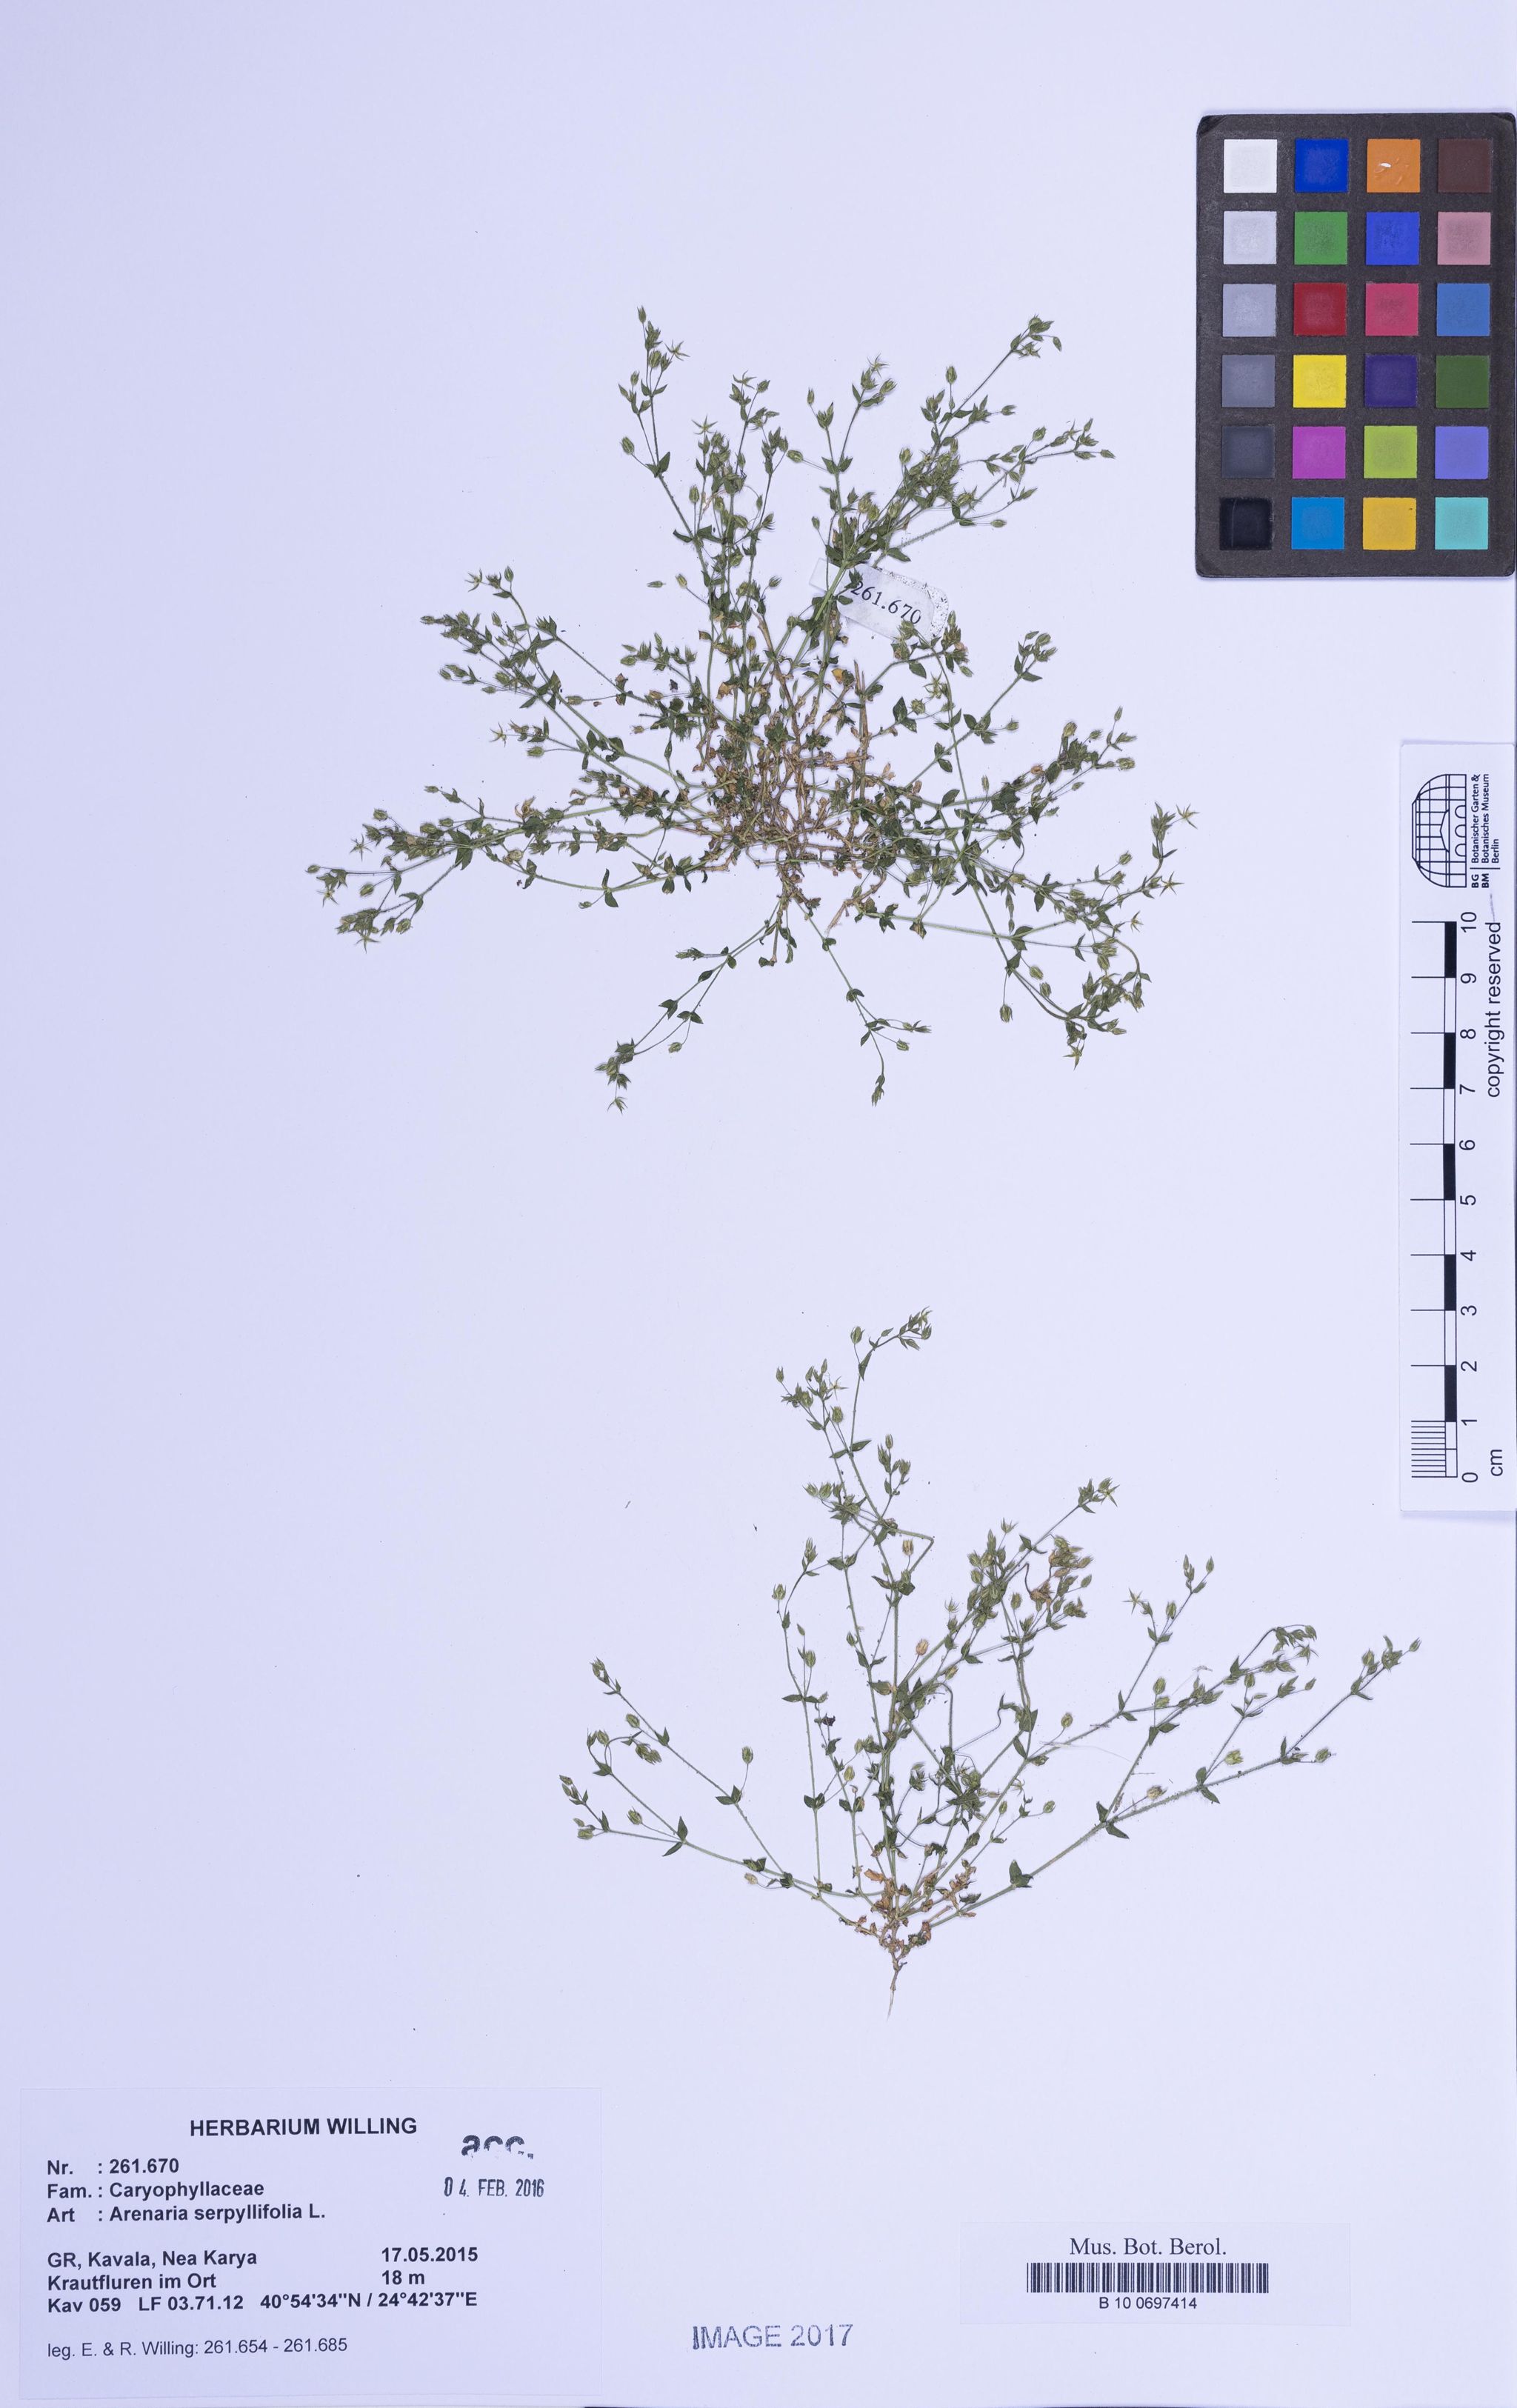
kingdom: Plantae
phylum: Tracheophyta
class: Magnoliopsida
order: Caryophyllales
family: Caryophyllaceae
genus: Arenaria
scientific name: Arenaria serpyllifolia
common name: Thyme-leaved sandwort
